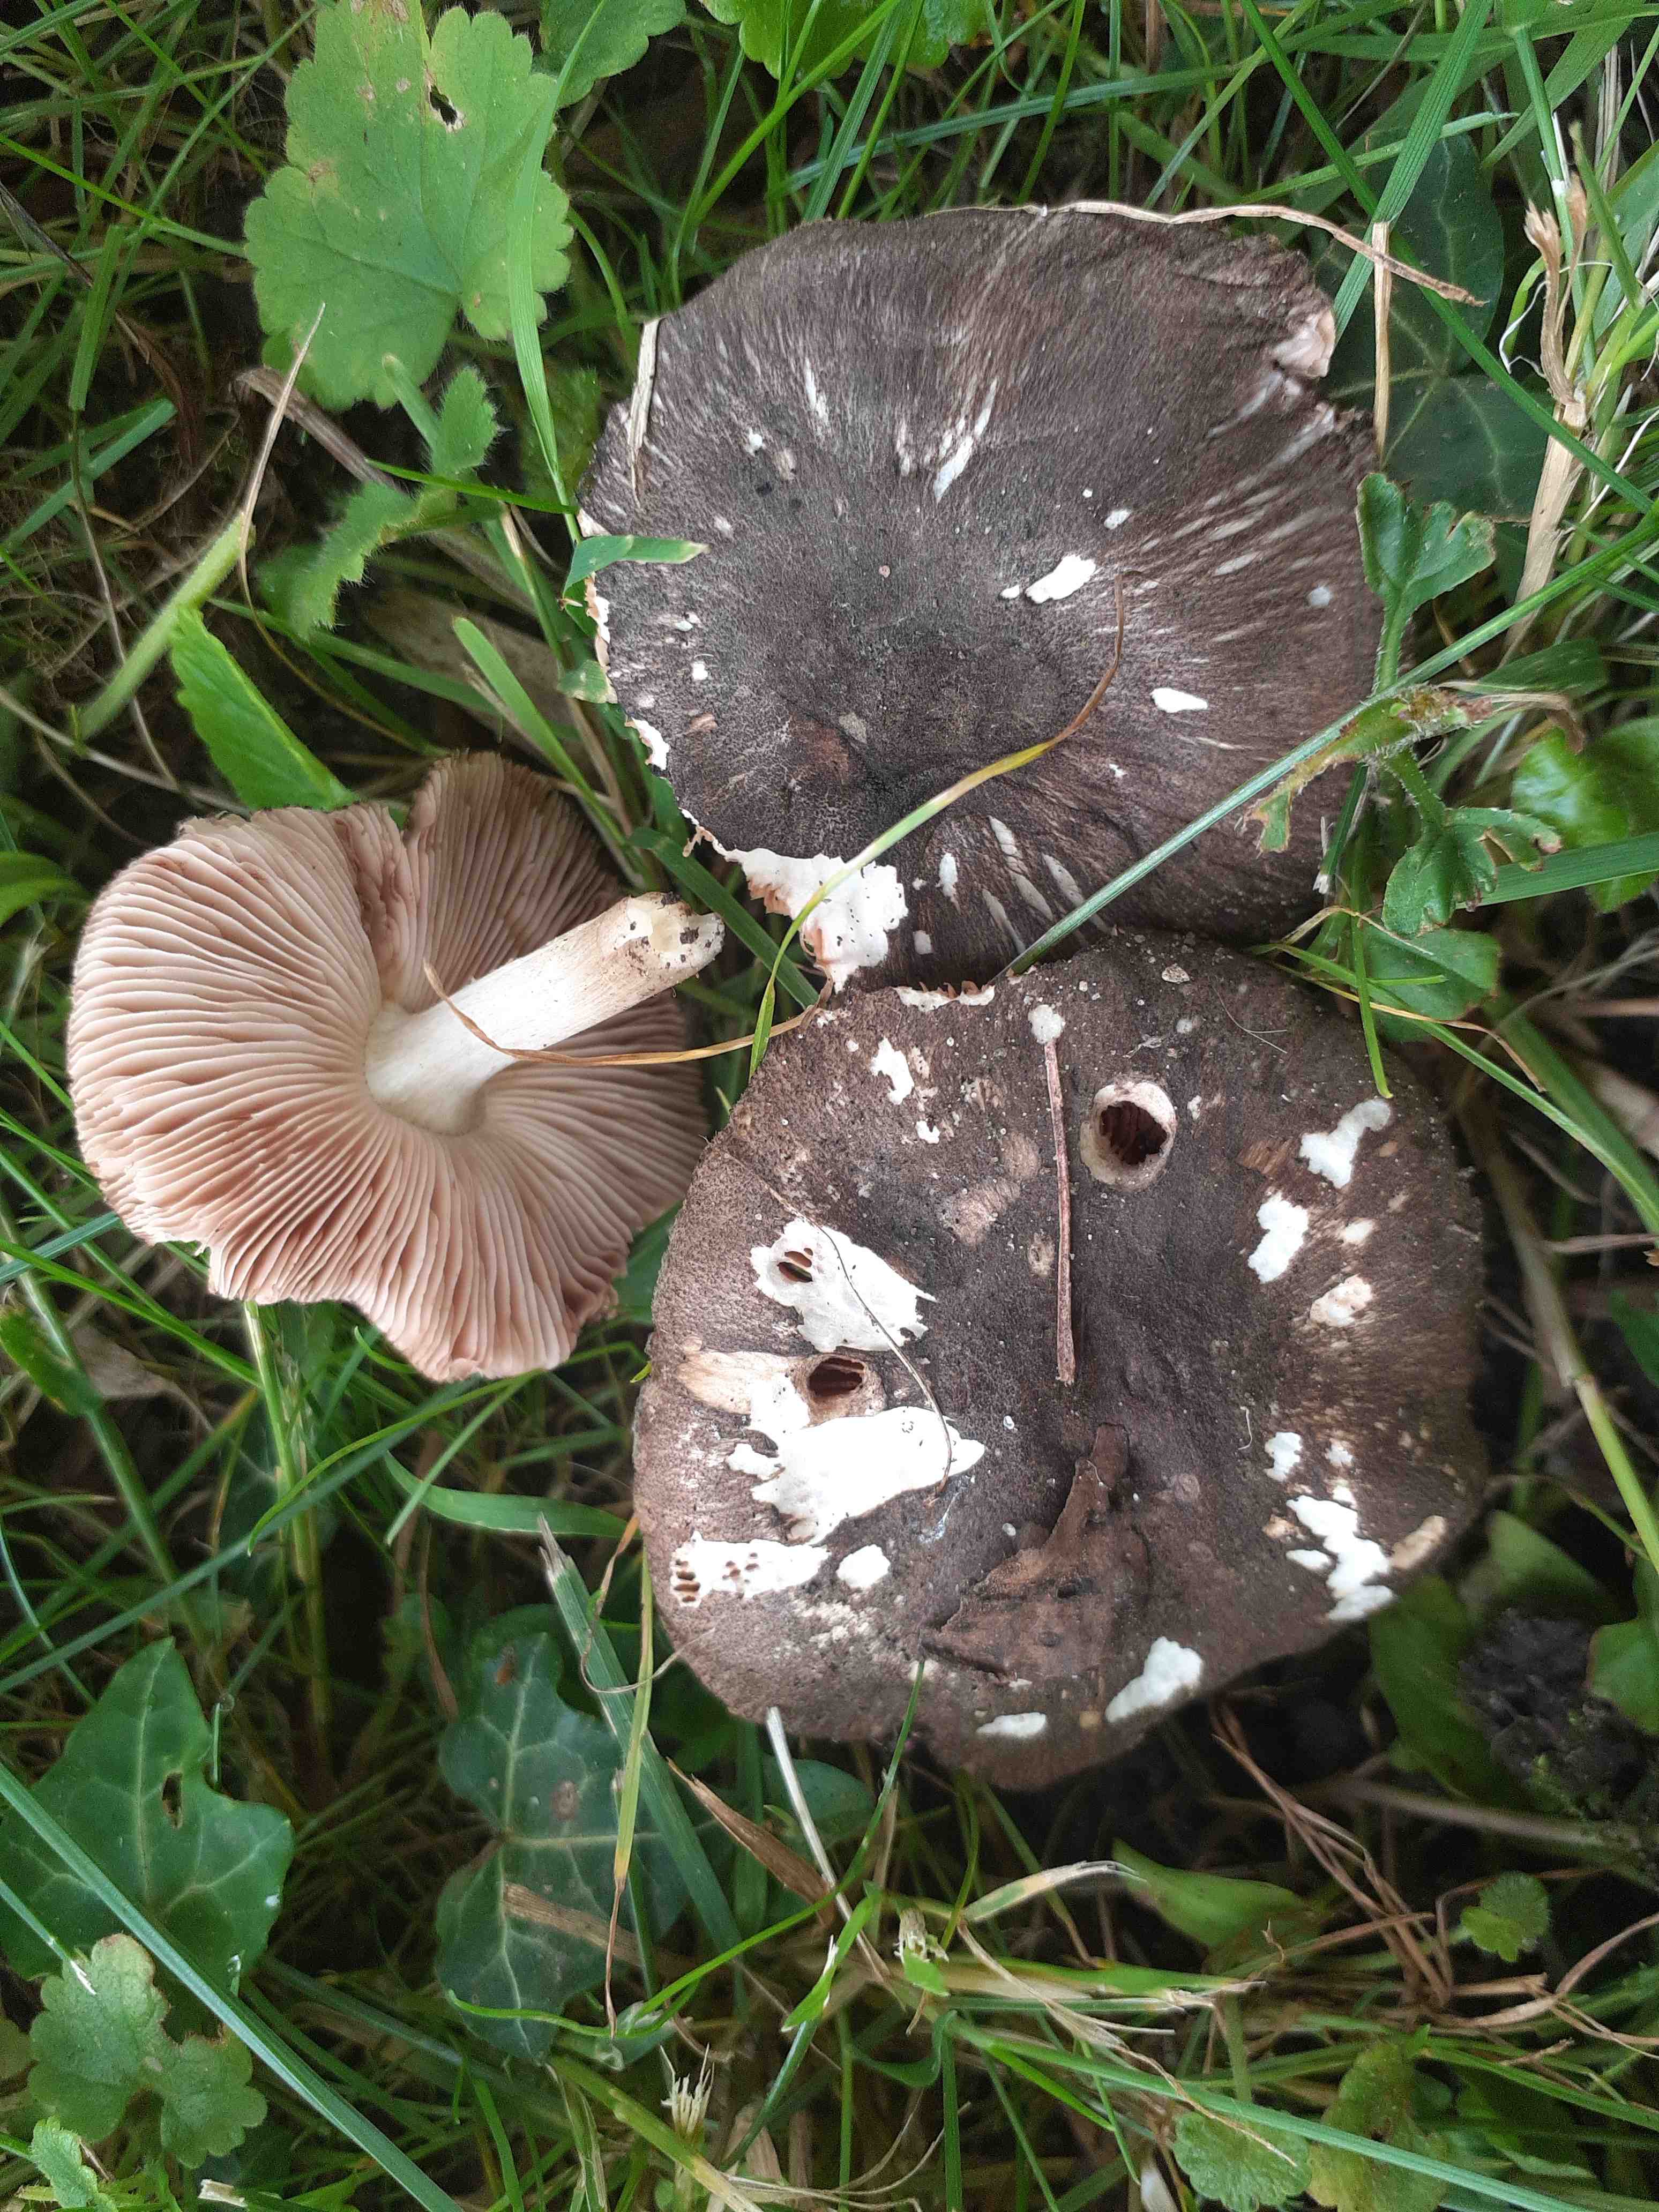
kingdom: Fungi
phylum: Basidiomycota
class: Agaricomycetes
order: Agaricales
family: Pluteaceae
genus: Pluteus
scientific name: Pluteus
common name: gråfibret skærmhat
